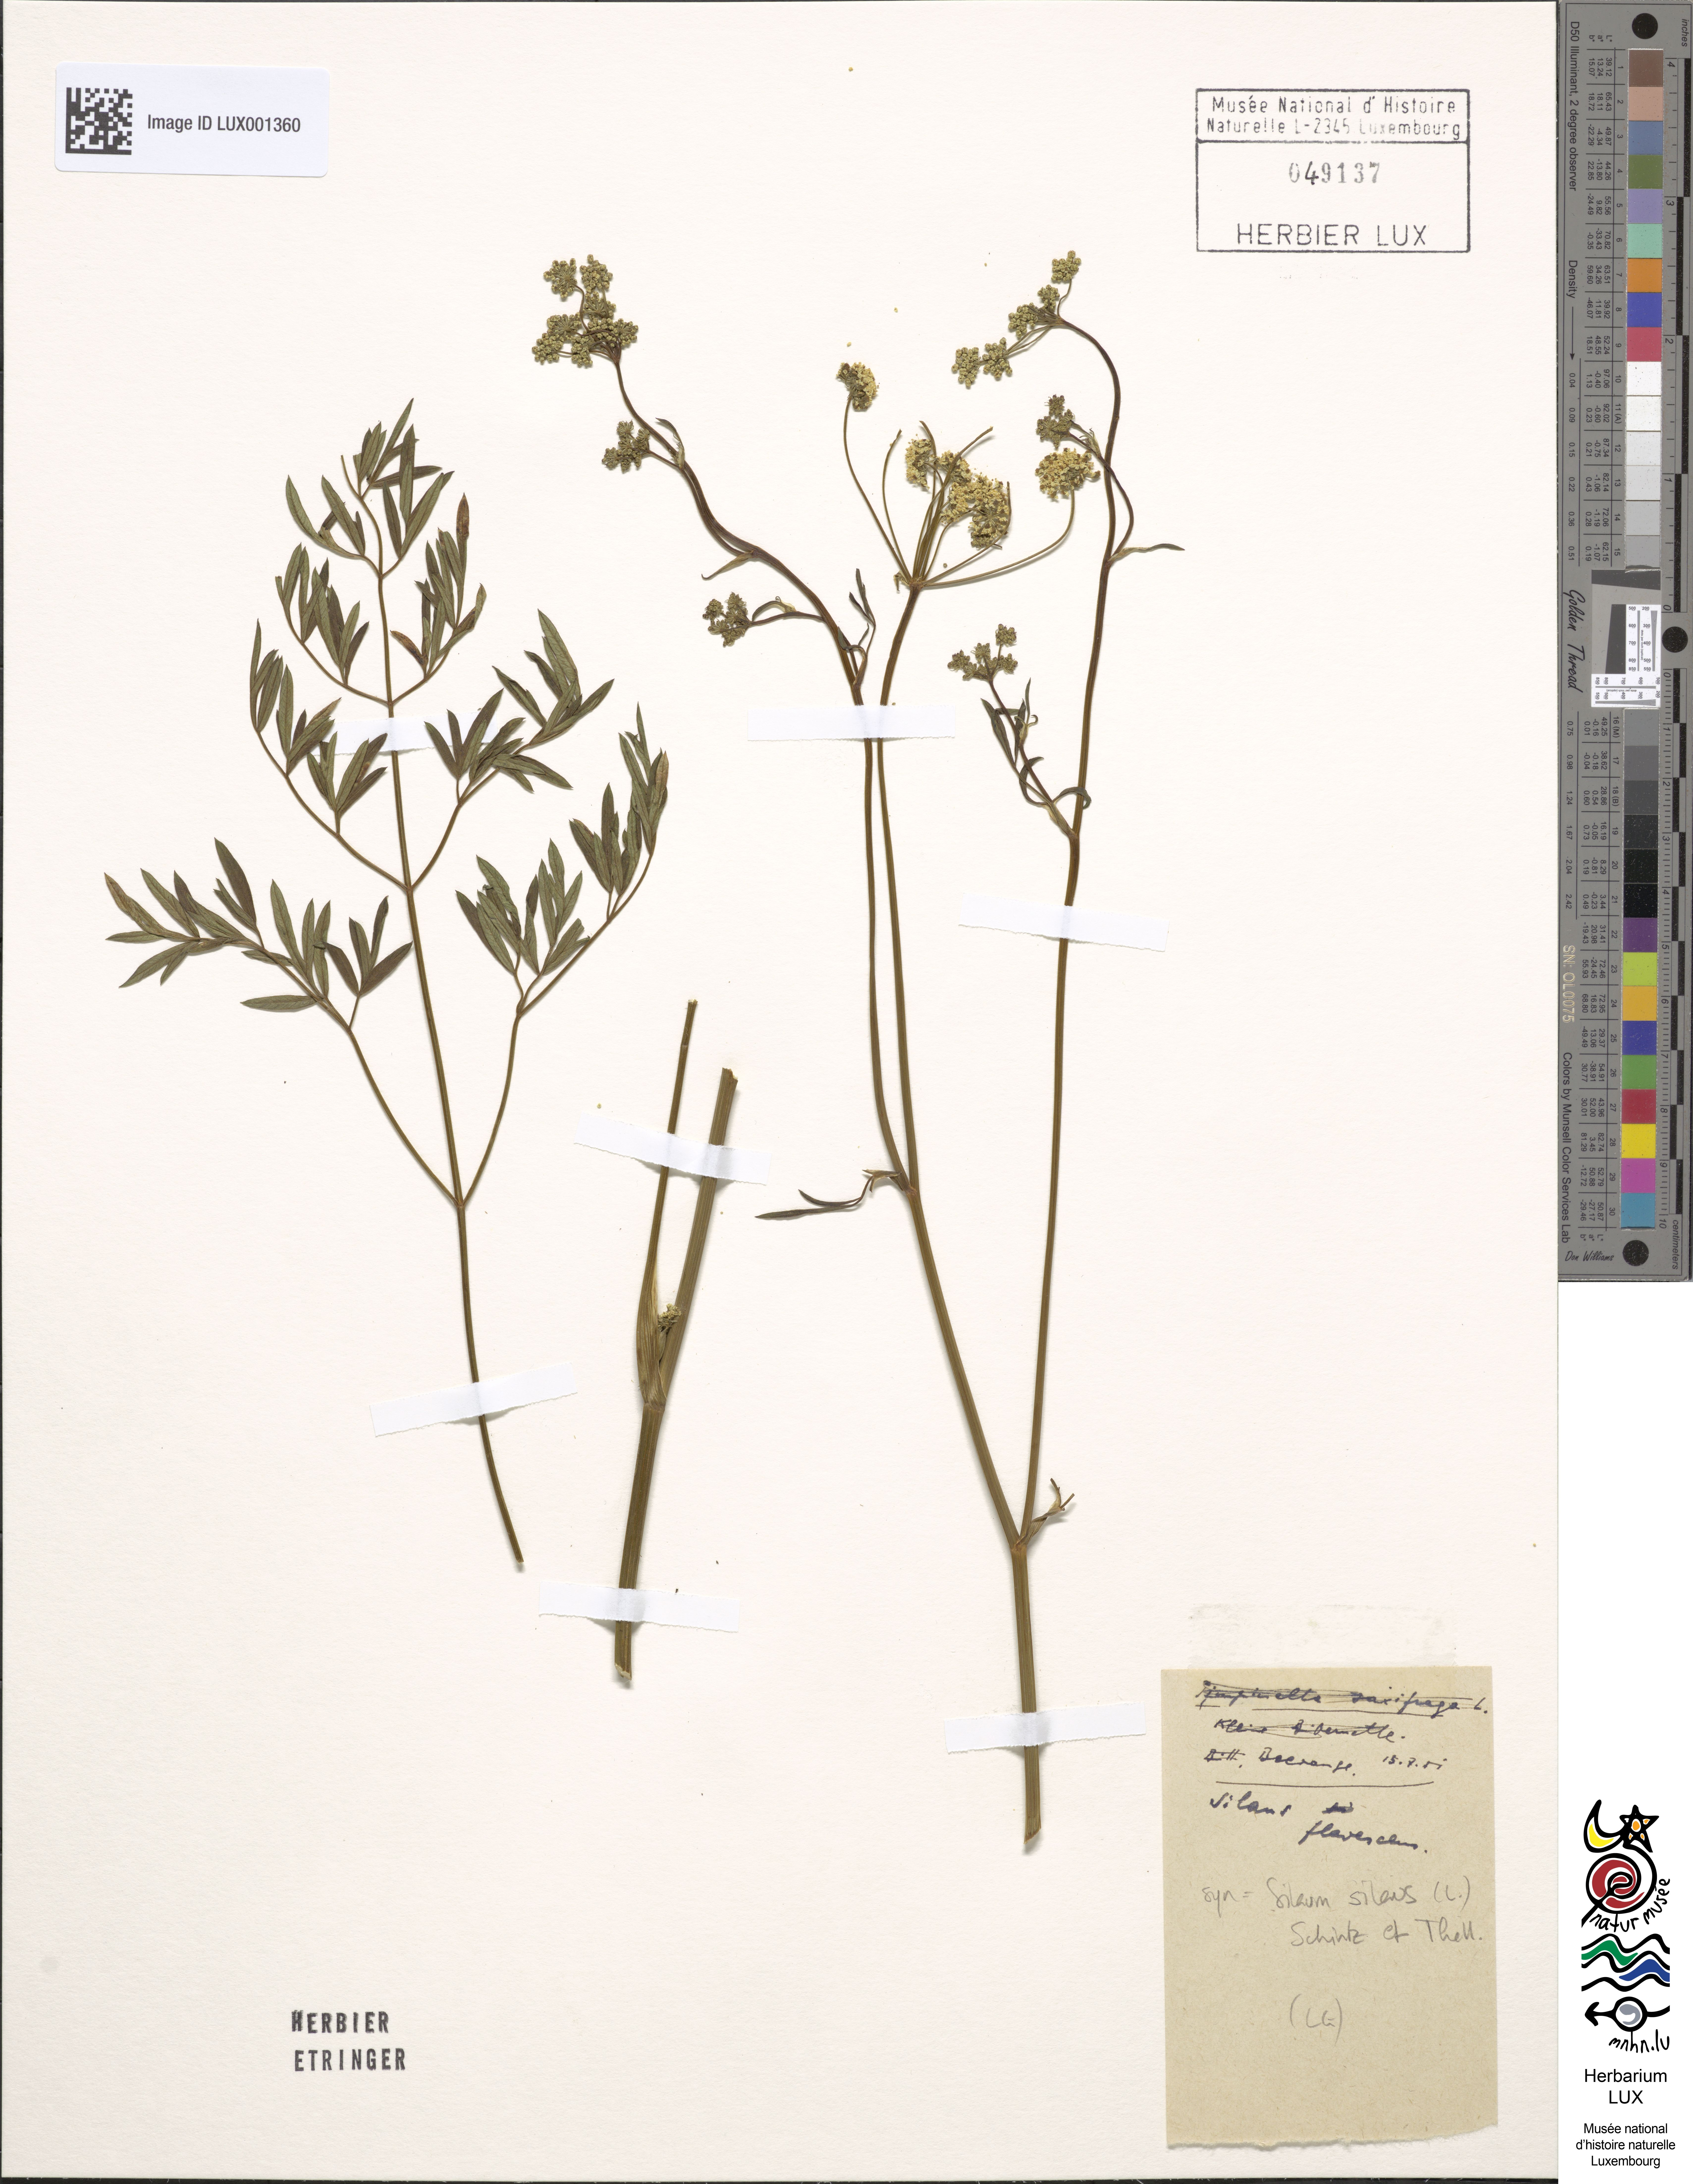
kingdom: Plantae
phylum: Tracheophyta
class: Magnoliopsida
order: Apiales
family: Apiaceae
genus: Silaum
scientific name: Silaum silaus
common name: Pepper-saxifrage
